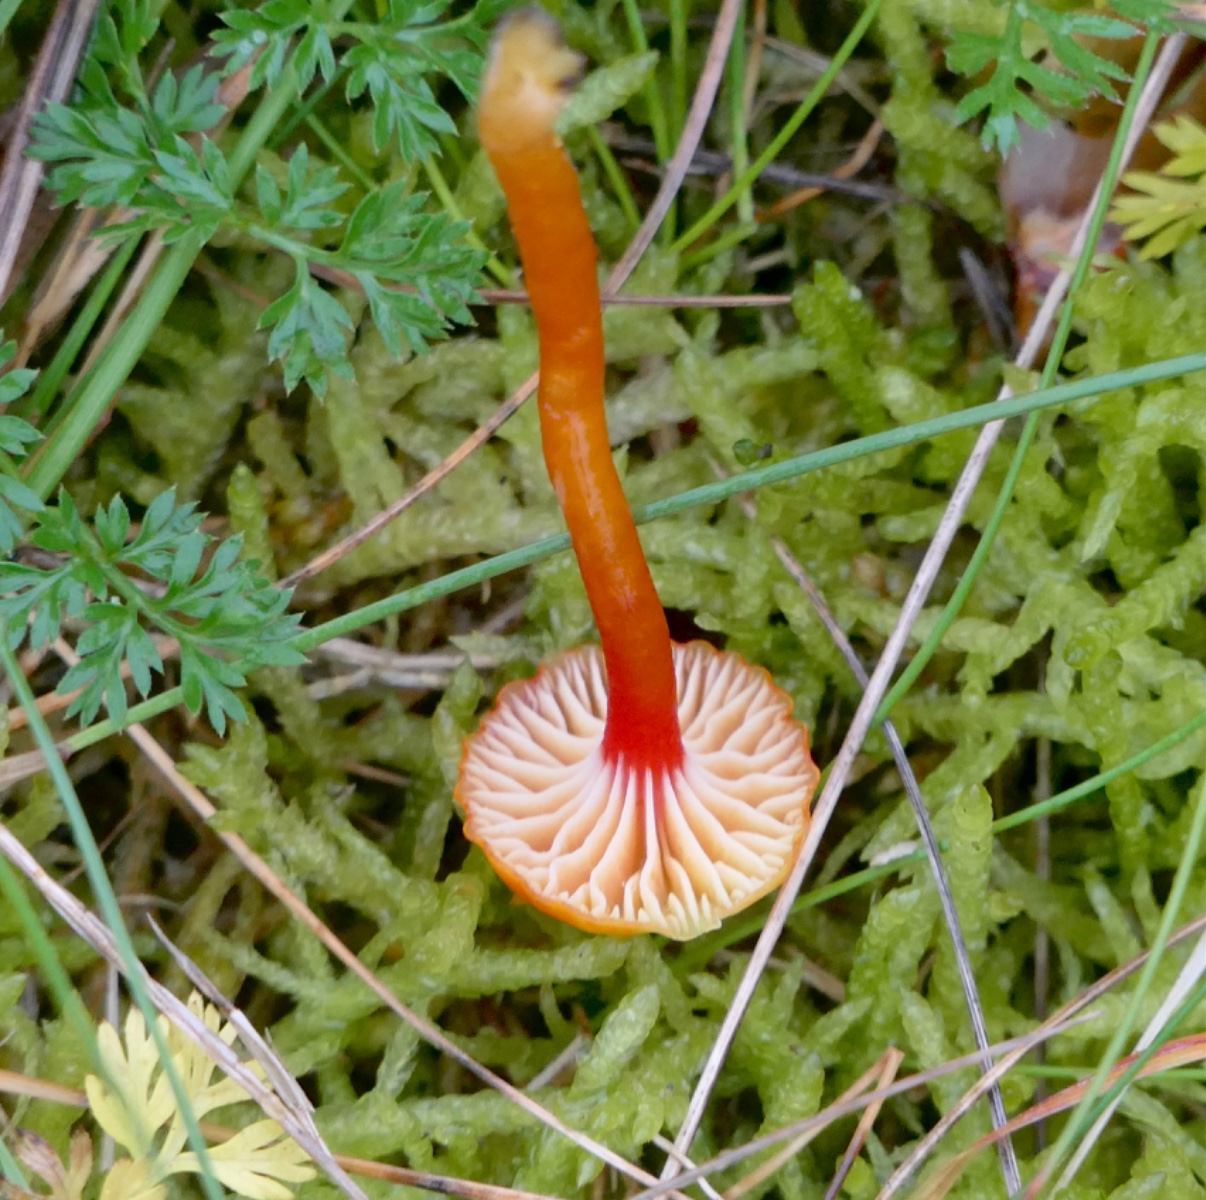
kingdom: Fungi
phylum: Basidiomycota
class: Agaricomycetes
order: Agaricales
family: Hygrophoraceae
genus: Hygrocybe
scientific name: Hygrocybe insipida
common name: liden vokshat
